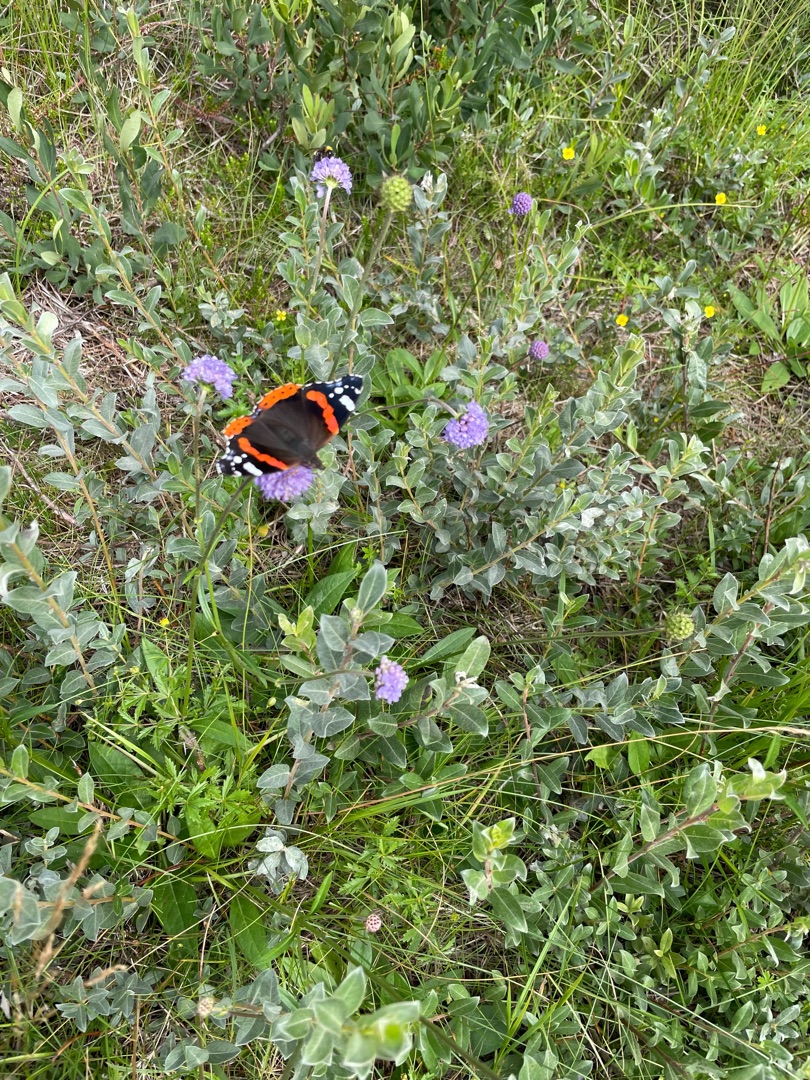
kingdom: Animalia
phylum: Arthropoda
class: Insecta
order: Lepidoptera
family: Nymphalidae
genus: Vanessa
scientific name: Vanessa atalanta
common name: Admiral
